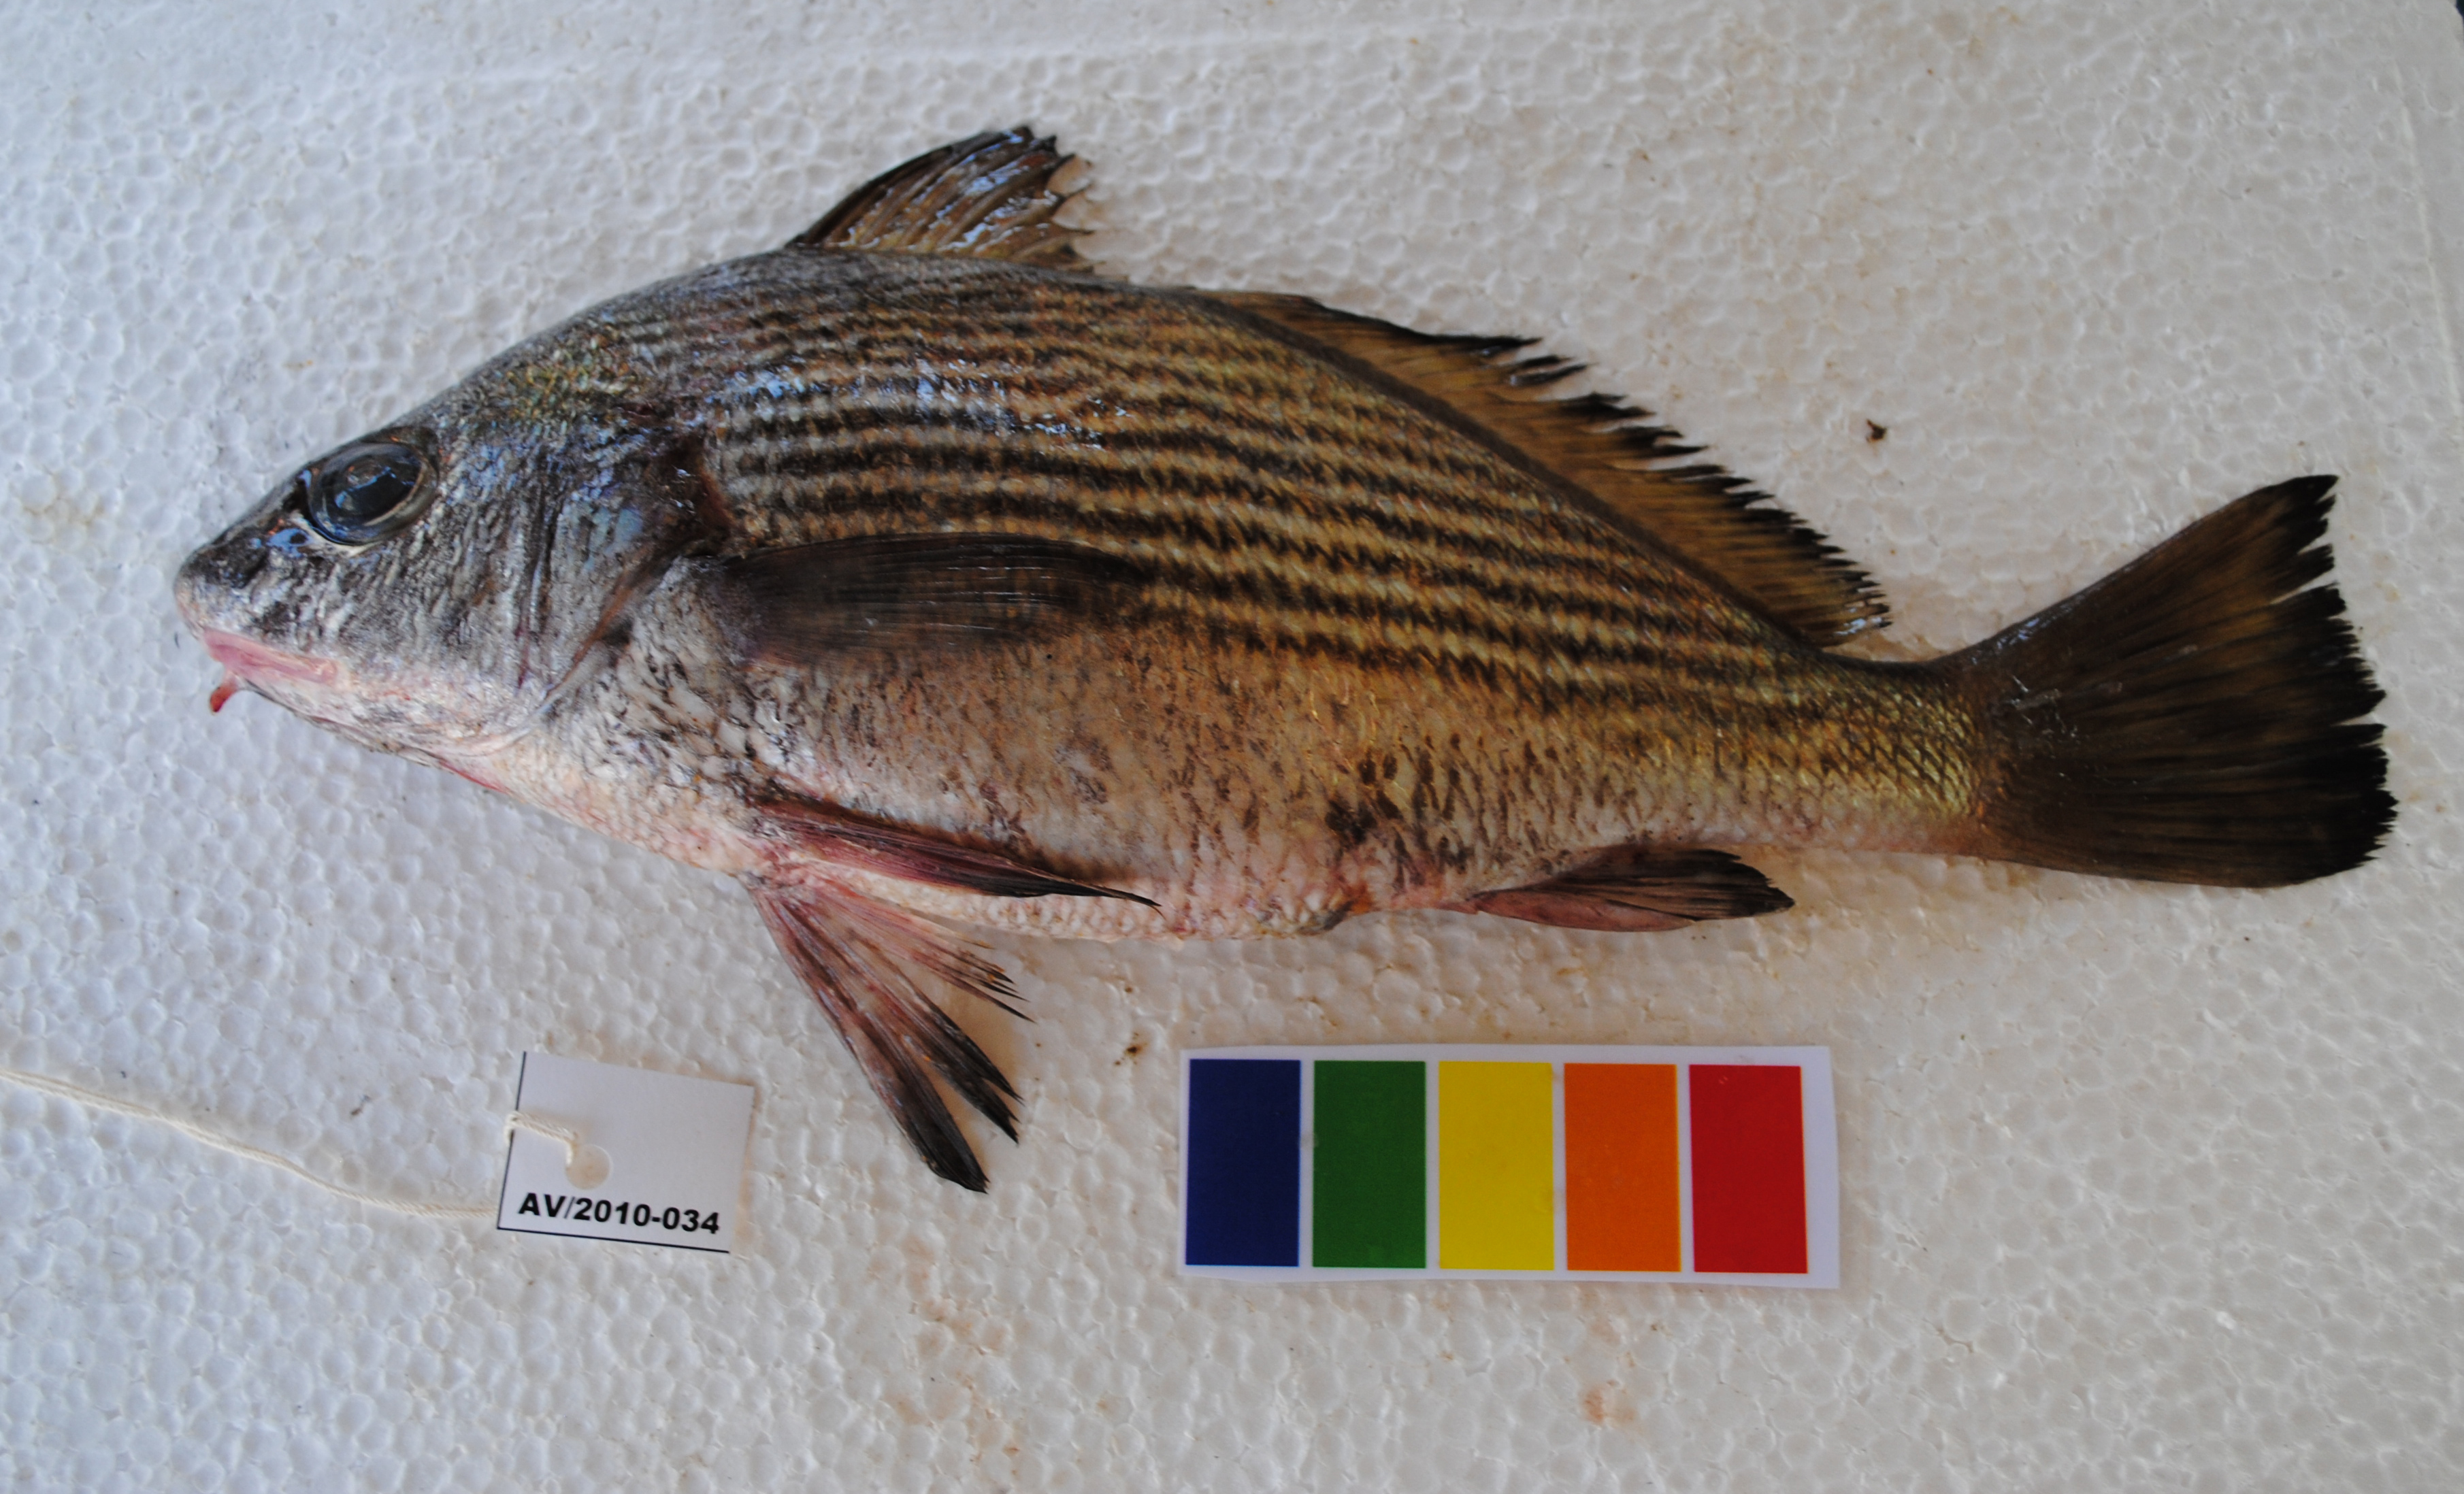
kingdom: Animalia
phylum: Chordata
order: Perciformes
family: Sciaenidae
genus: Umbrina
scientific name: Umbrina canariensis
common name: Baardman
